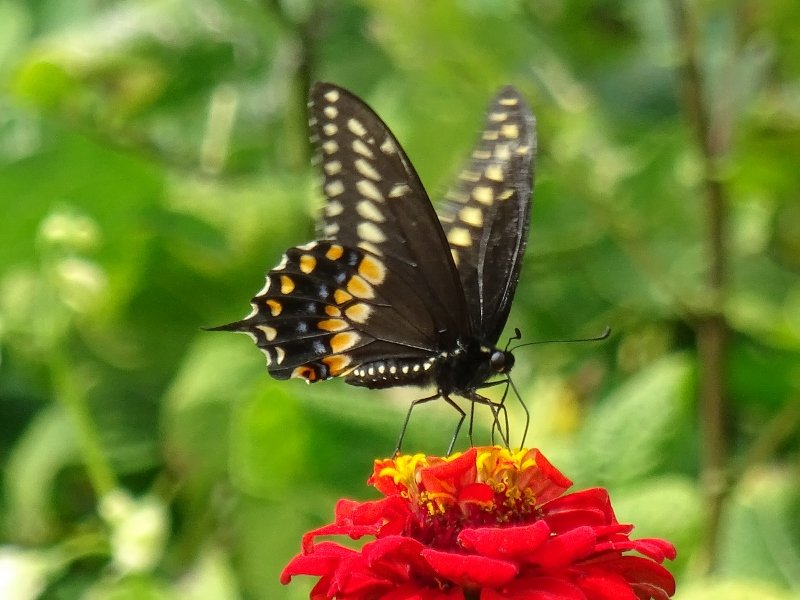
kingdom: Animalia
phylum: Arthropoda
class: Insecta
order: Lepidoptera
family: Papilionidae
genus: Papilio
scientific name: Papilio polyxenes
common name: Black Swallowtail
